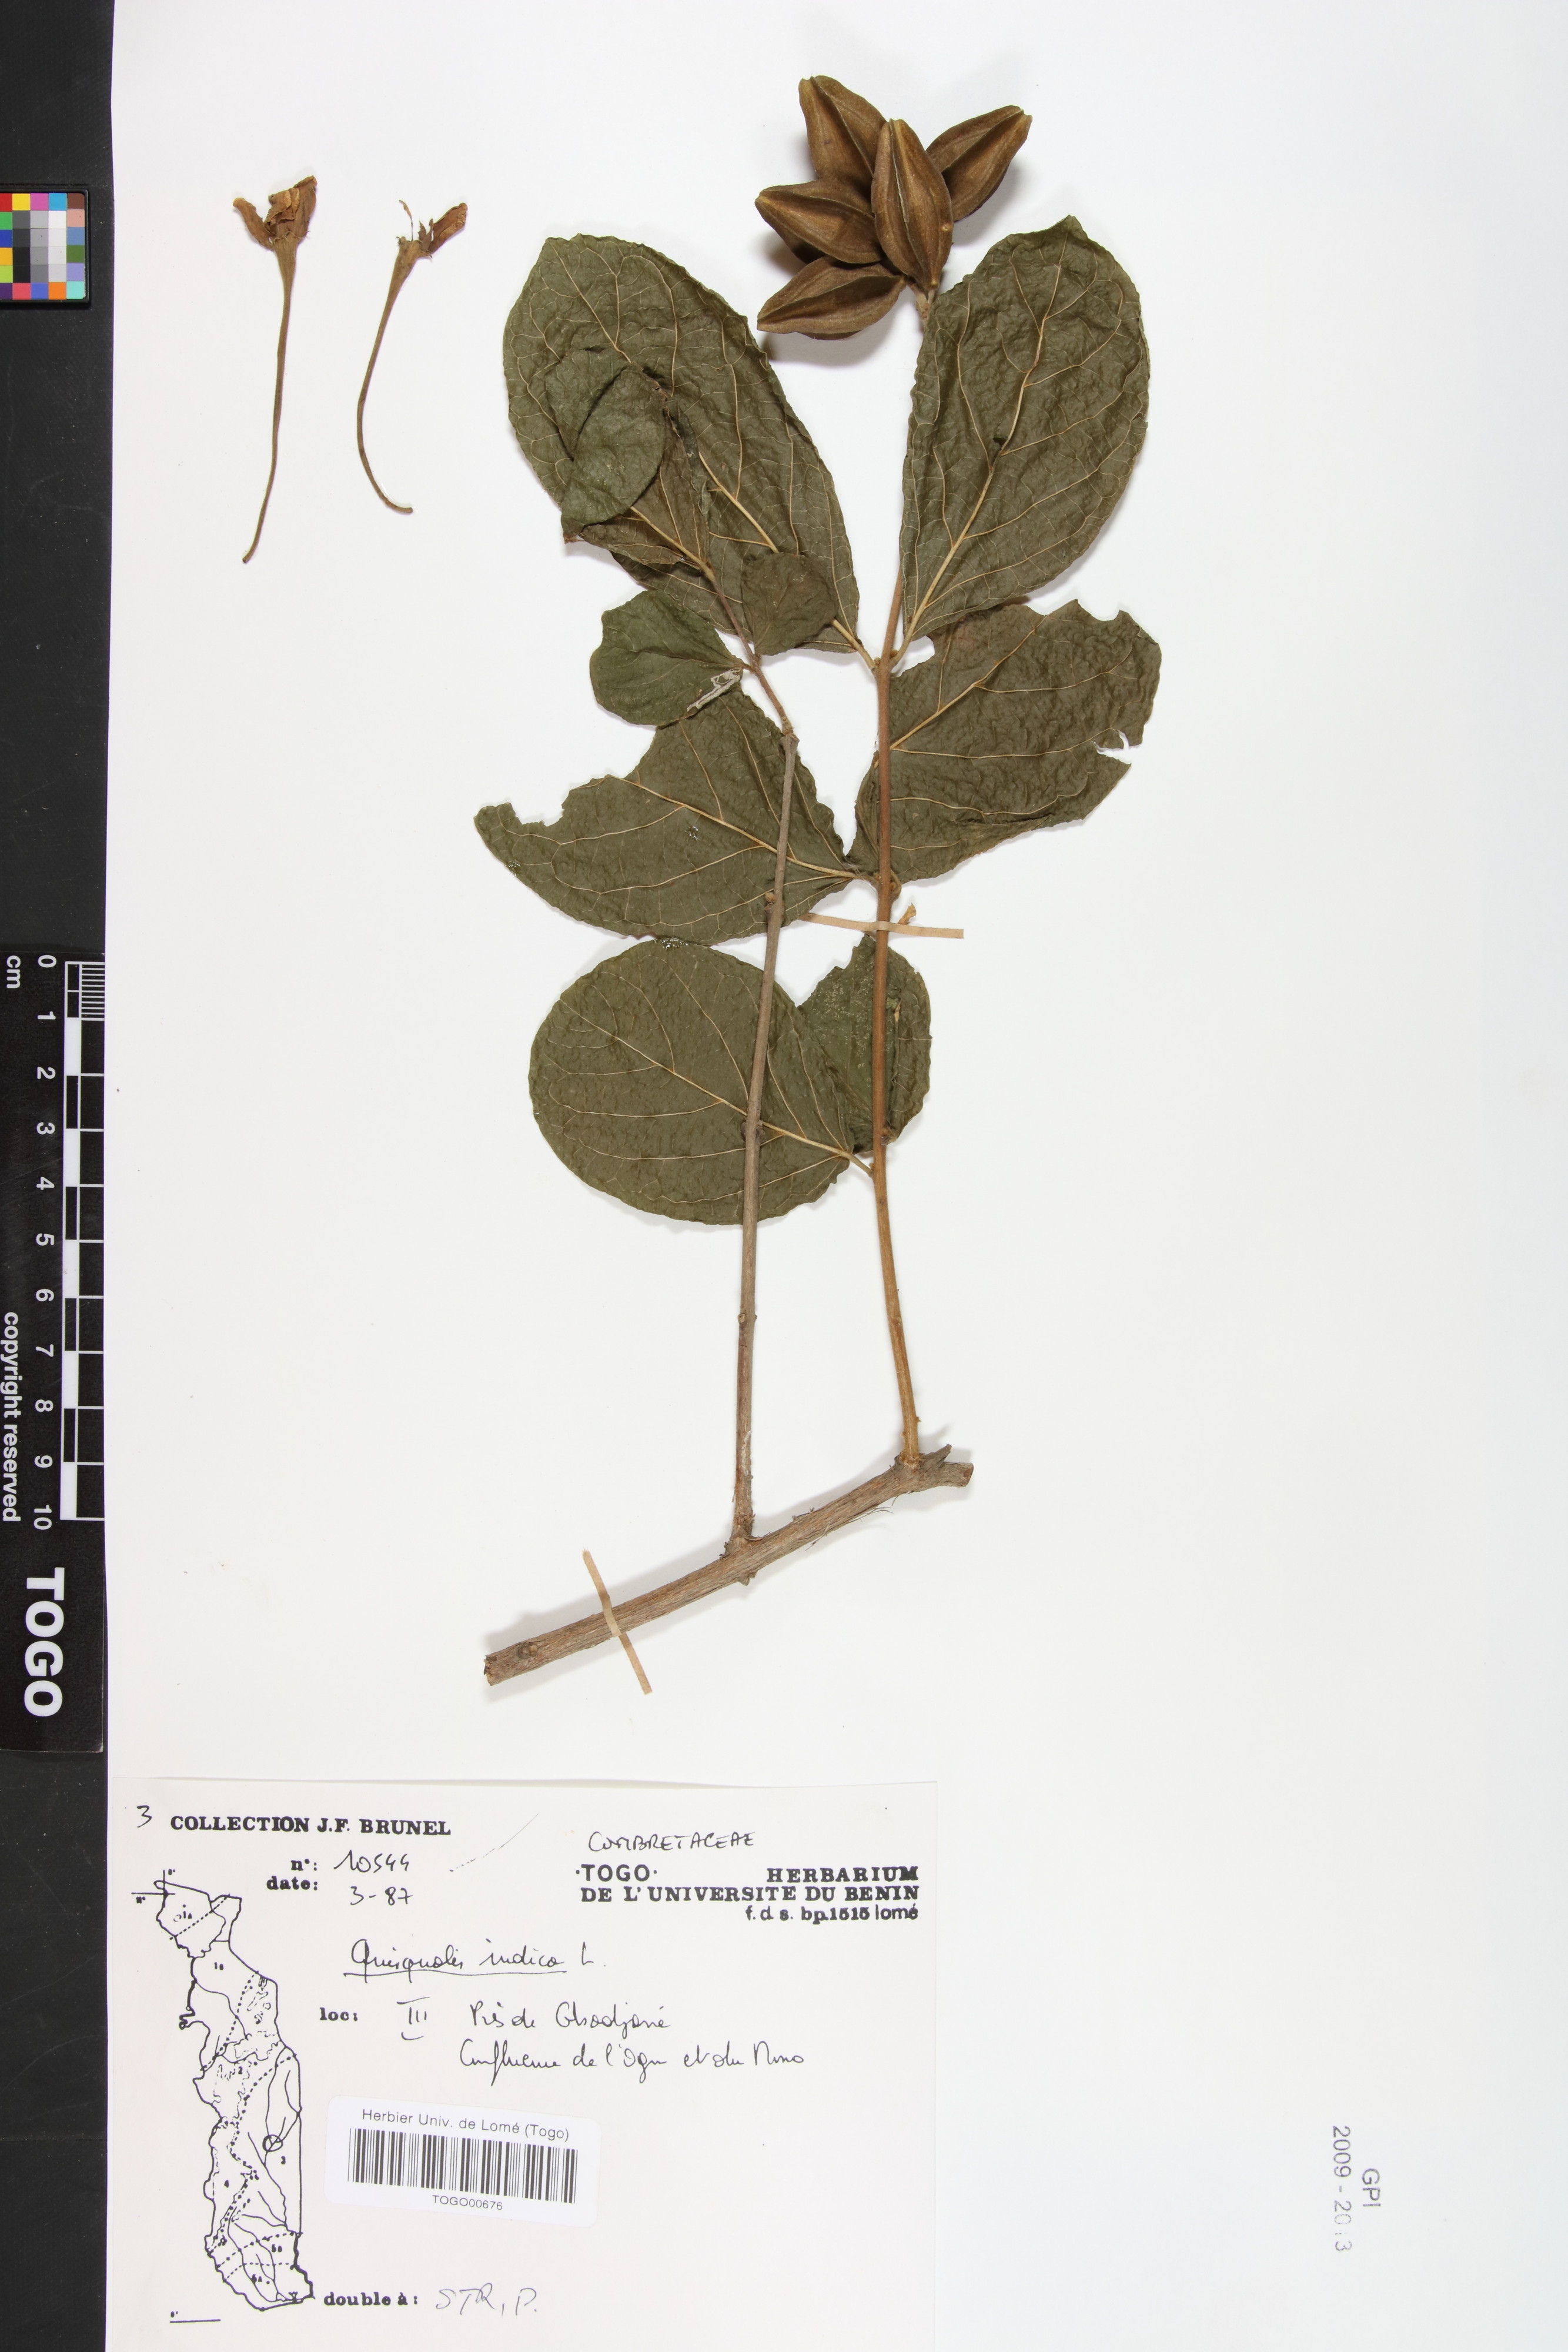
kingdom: Plantae
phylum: Tracheophyta
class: Magnoliopsida
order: Myrtales
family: Combretaceae
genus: Combretum
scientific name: Combretum indicum
